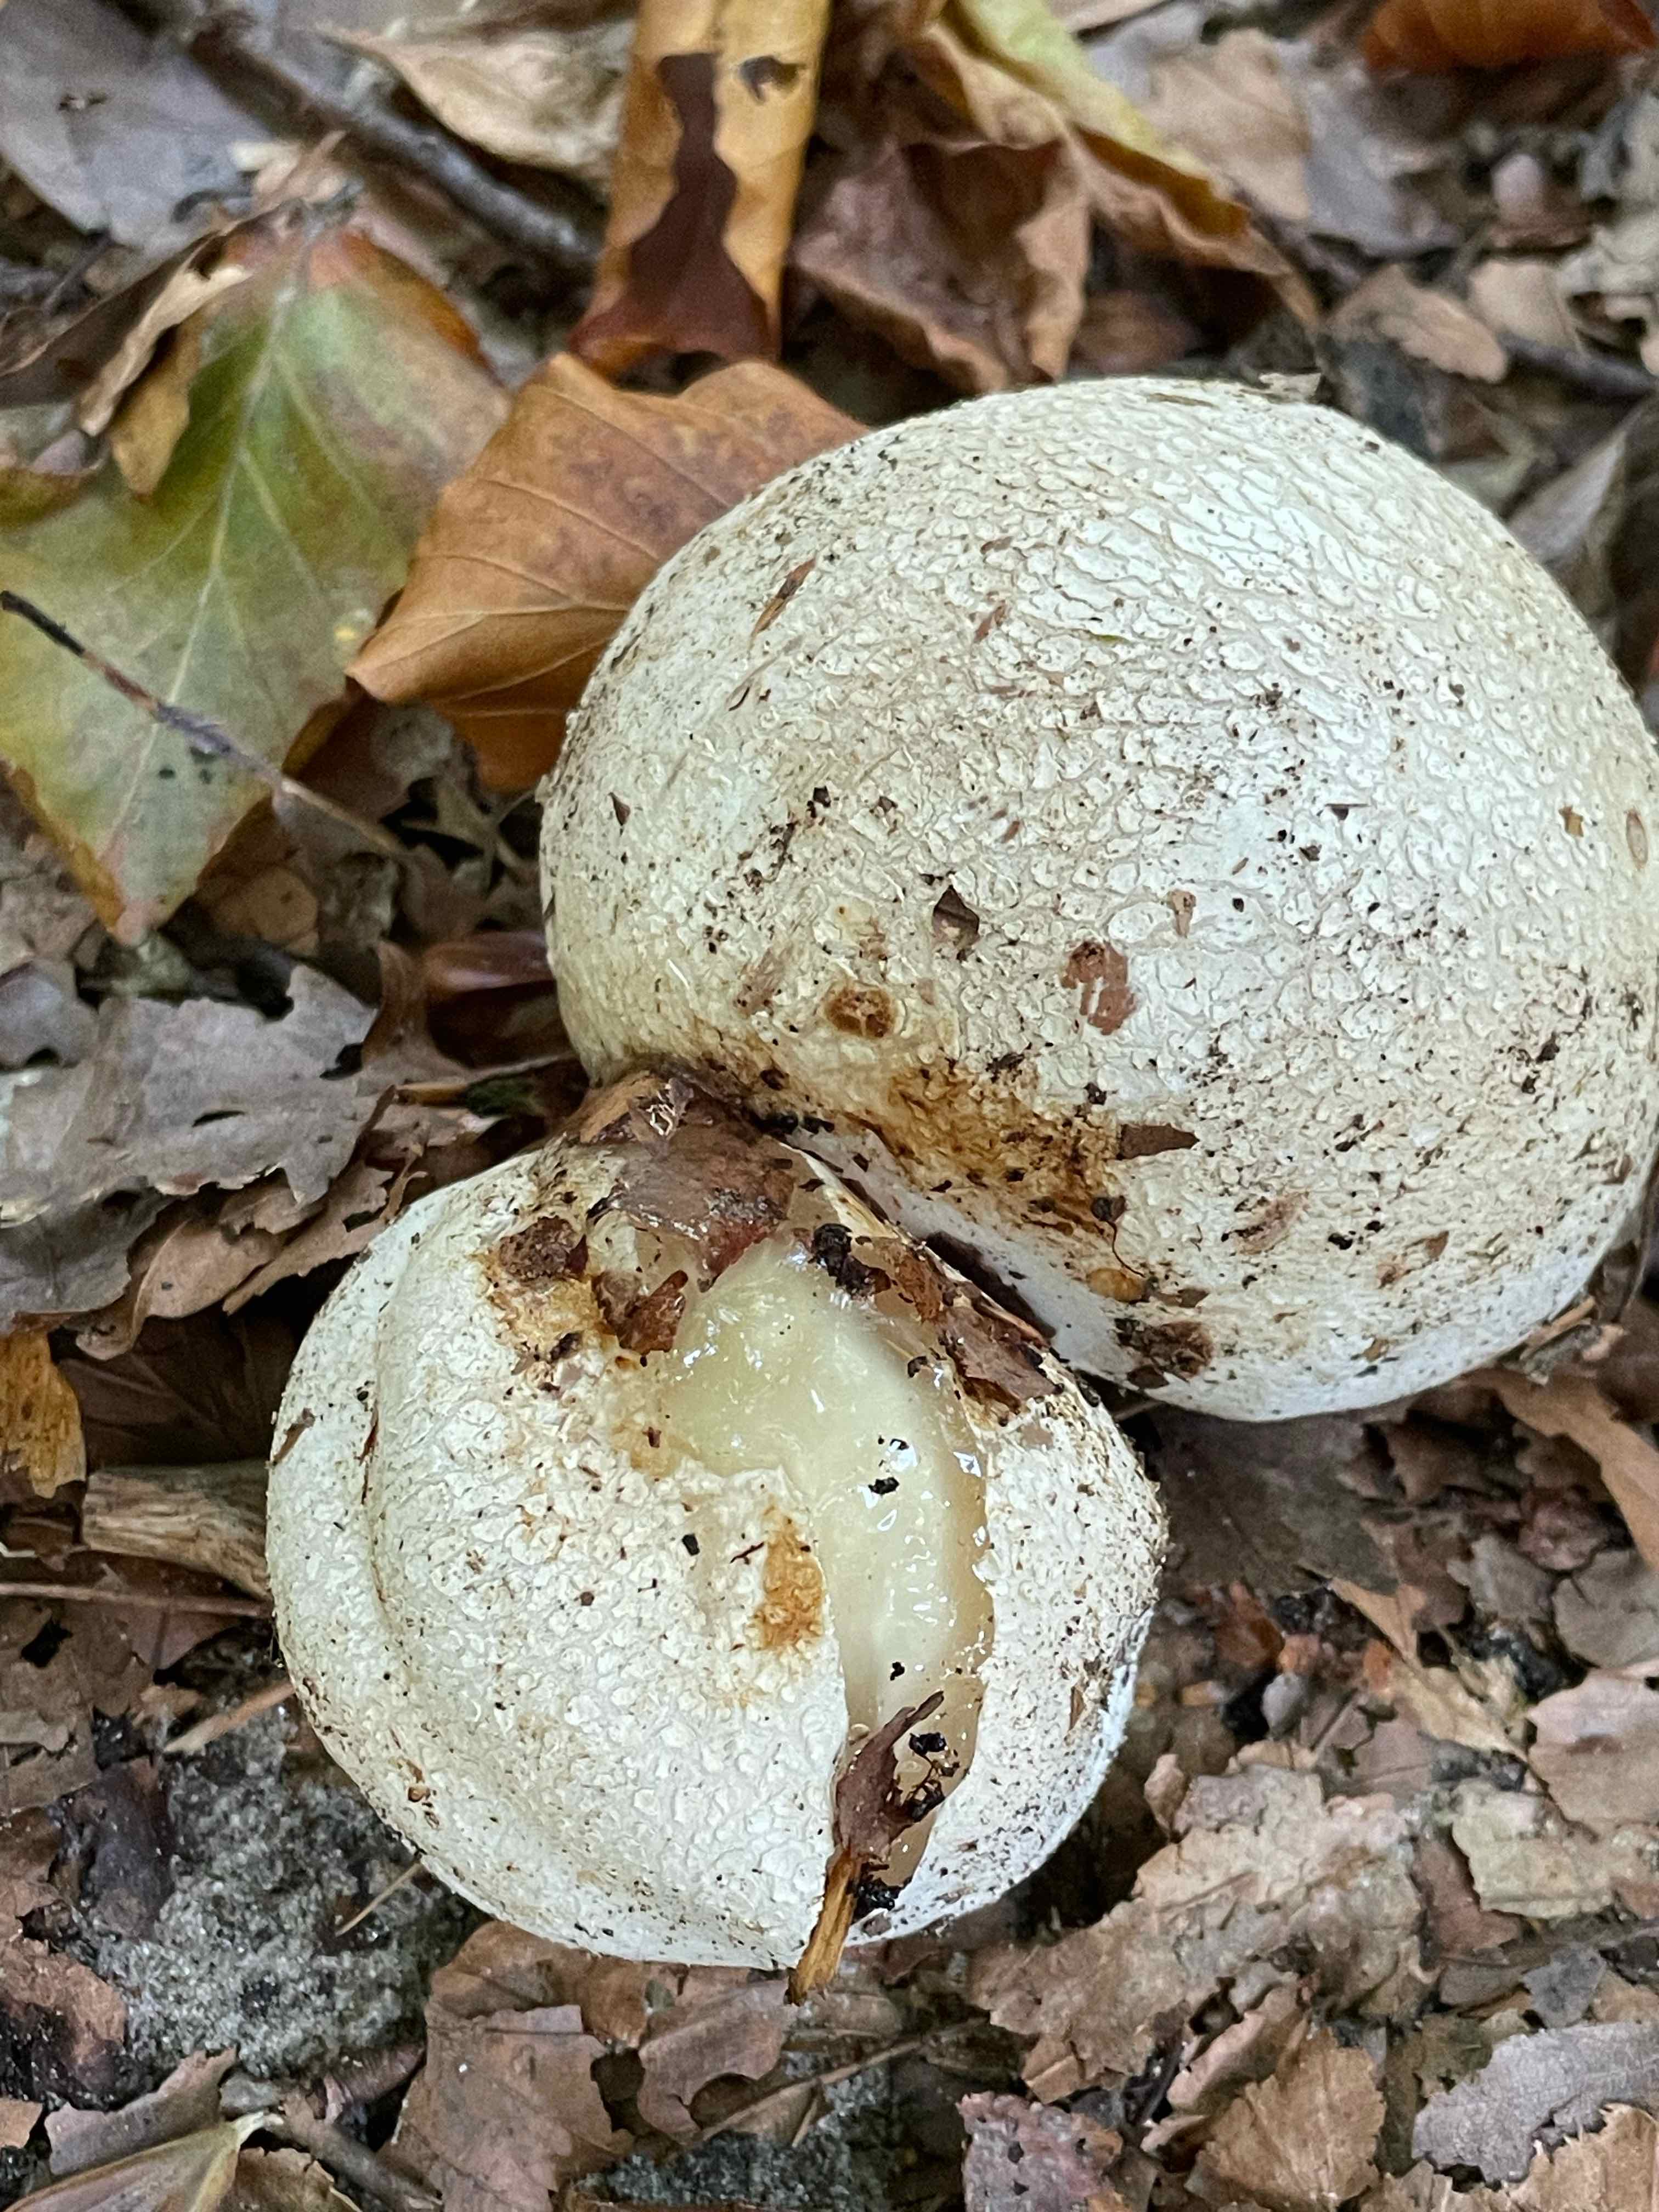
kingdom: Fungi
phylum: Basidiomycota
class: Agaricomycetes
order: Phallales
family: Phallaceae
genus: Phallus
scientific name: Phallus impudicus
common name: almindelig stinksvamp
